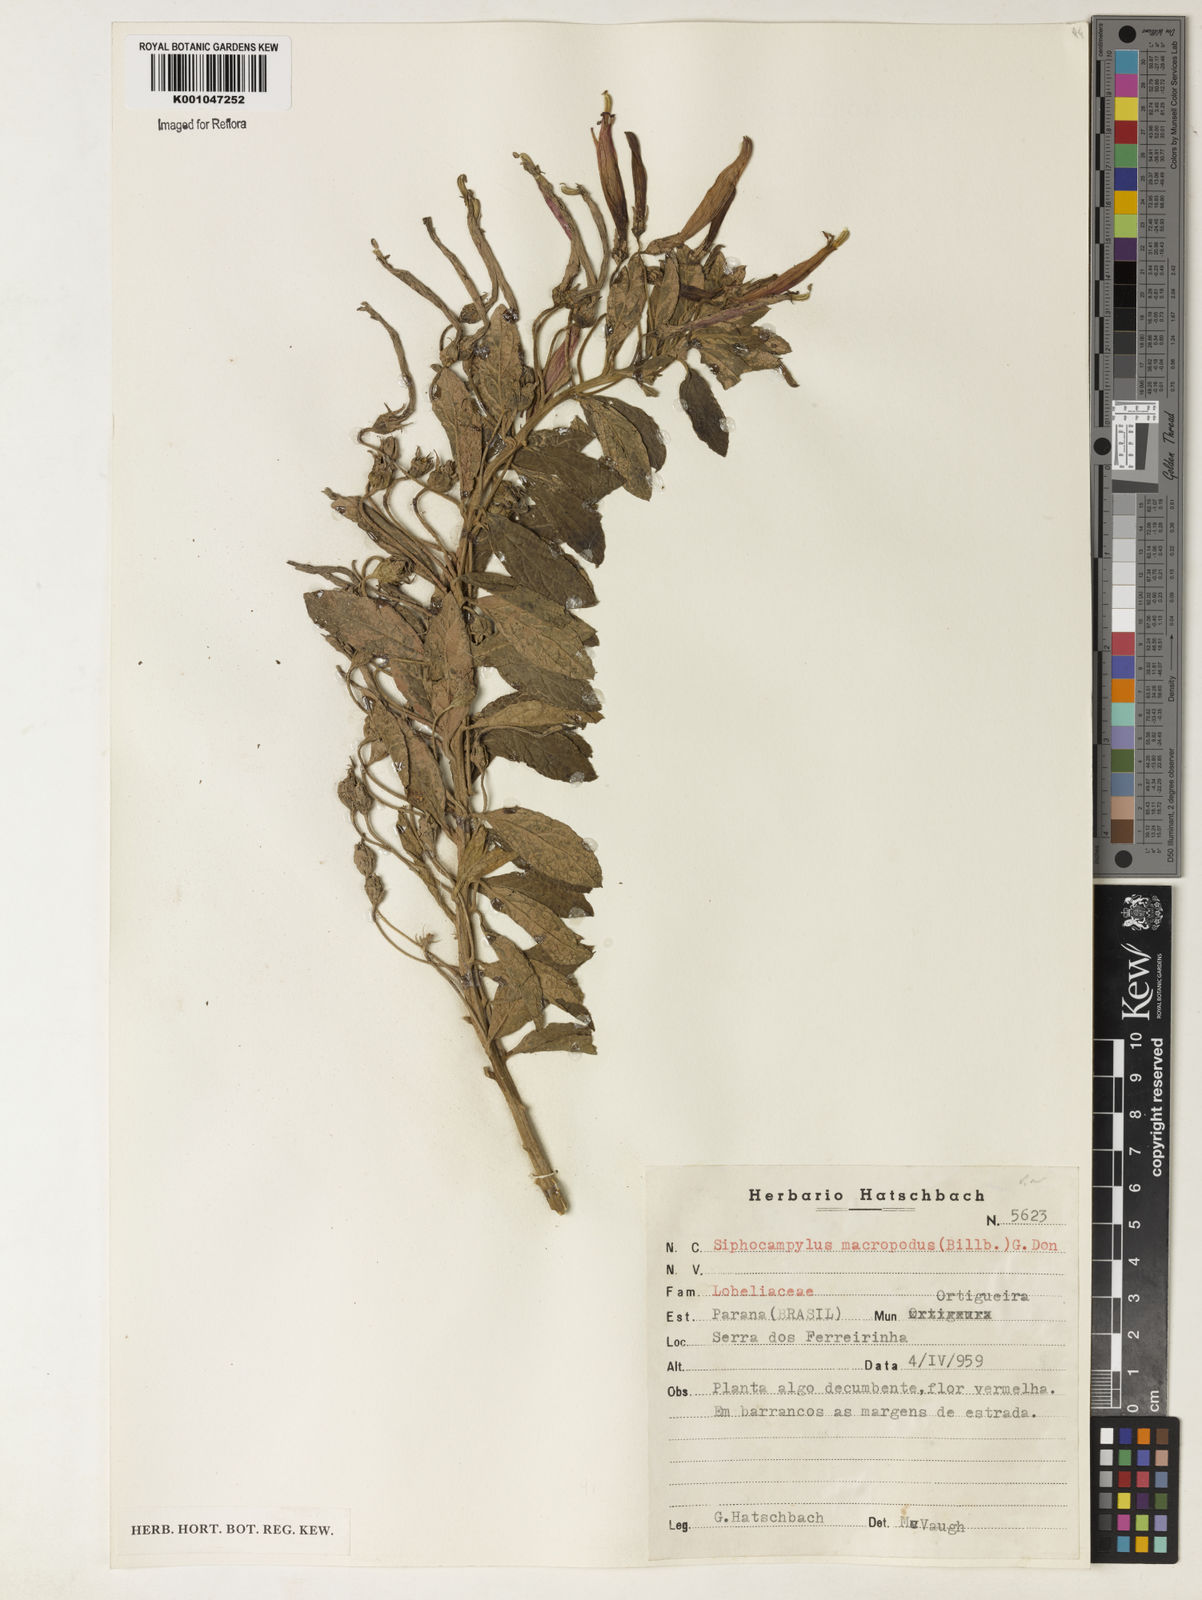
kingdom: Plantae
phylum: Tracheophyta
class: Magnoliopsida
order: Asterales
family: Campanulaceae
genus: Siphocampylus
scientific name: Siphocampylus macropodus
